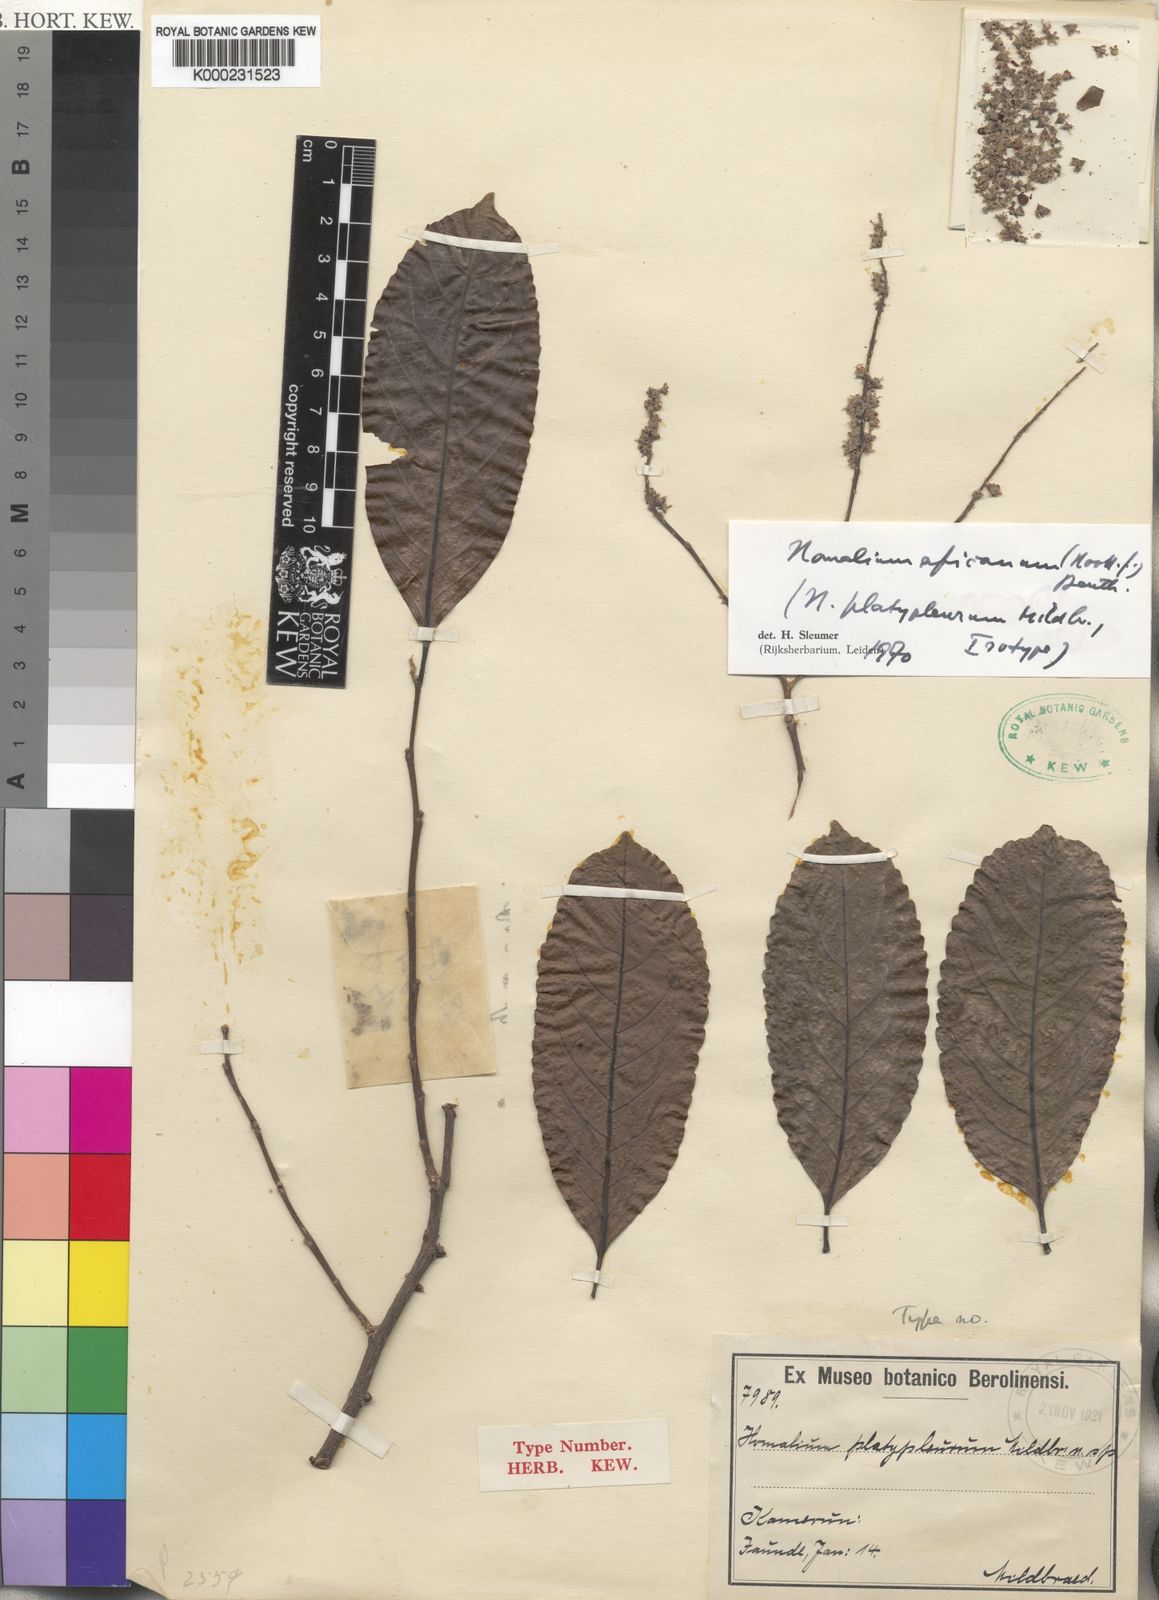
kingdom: Plantae
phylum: Tracheophyta
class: Magnoliopsida
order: Malpighiales
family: Salicaceae
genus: Homalium
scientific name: Homalium africanum
